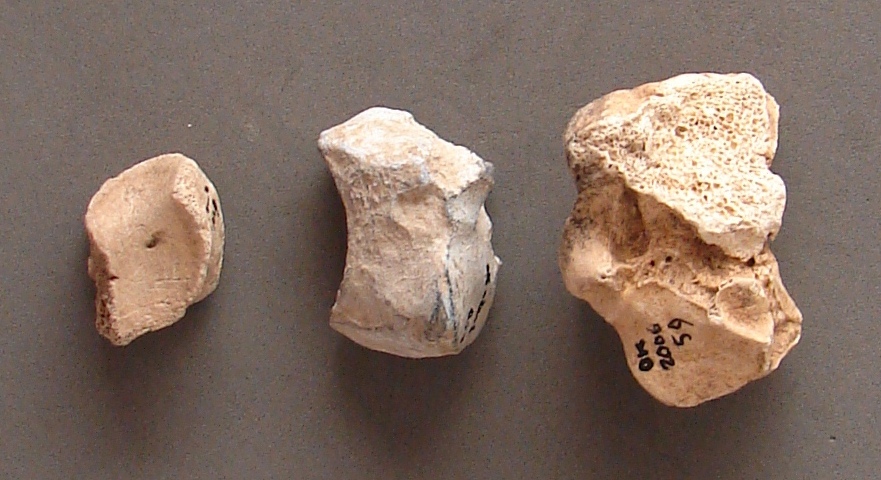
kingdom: Animalia
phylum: Chordata
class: Mammalia
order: Artiodactyla
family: Suidae
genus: Sus
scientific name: Sus scrofa
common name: Wild boar
